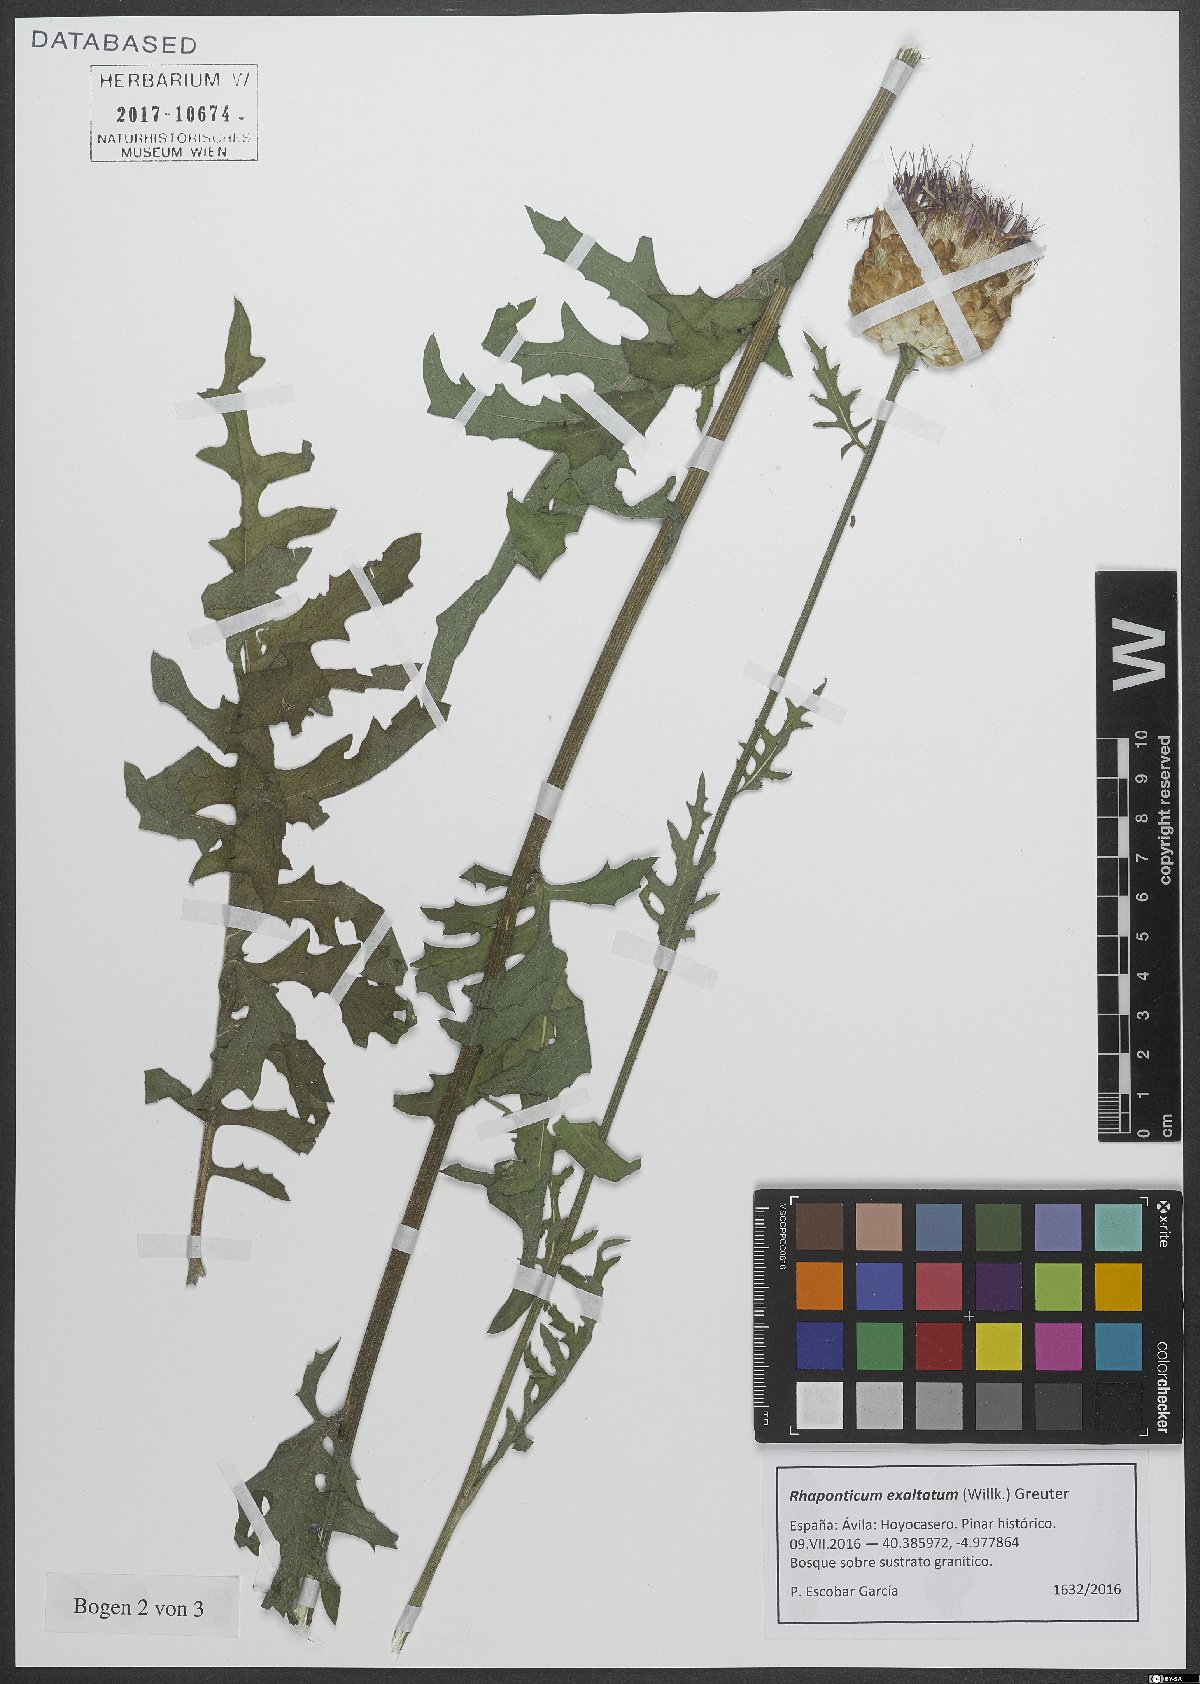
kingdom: Plantae
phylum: Tracheophyta
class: Magnoliopsida
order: Asterales
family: Asteraceae
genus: Leuzea
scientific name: Leuzea exaltata
